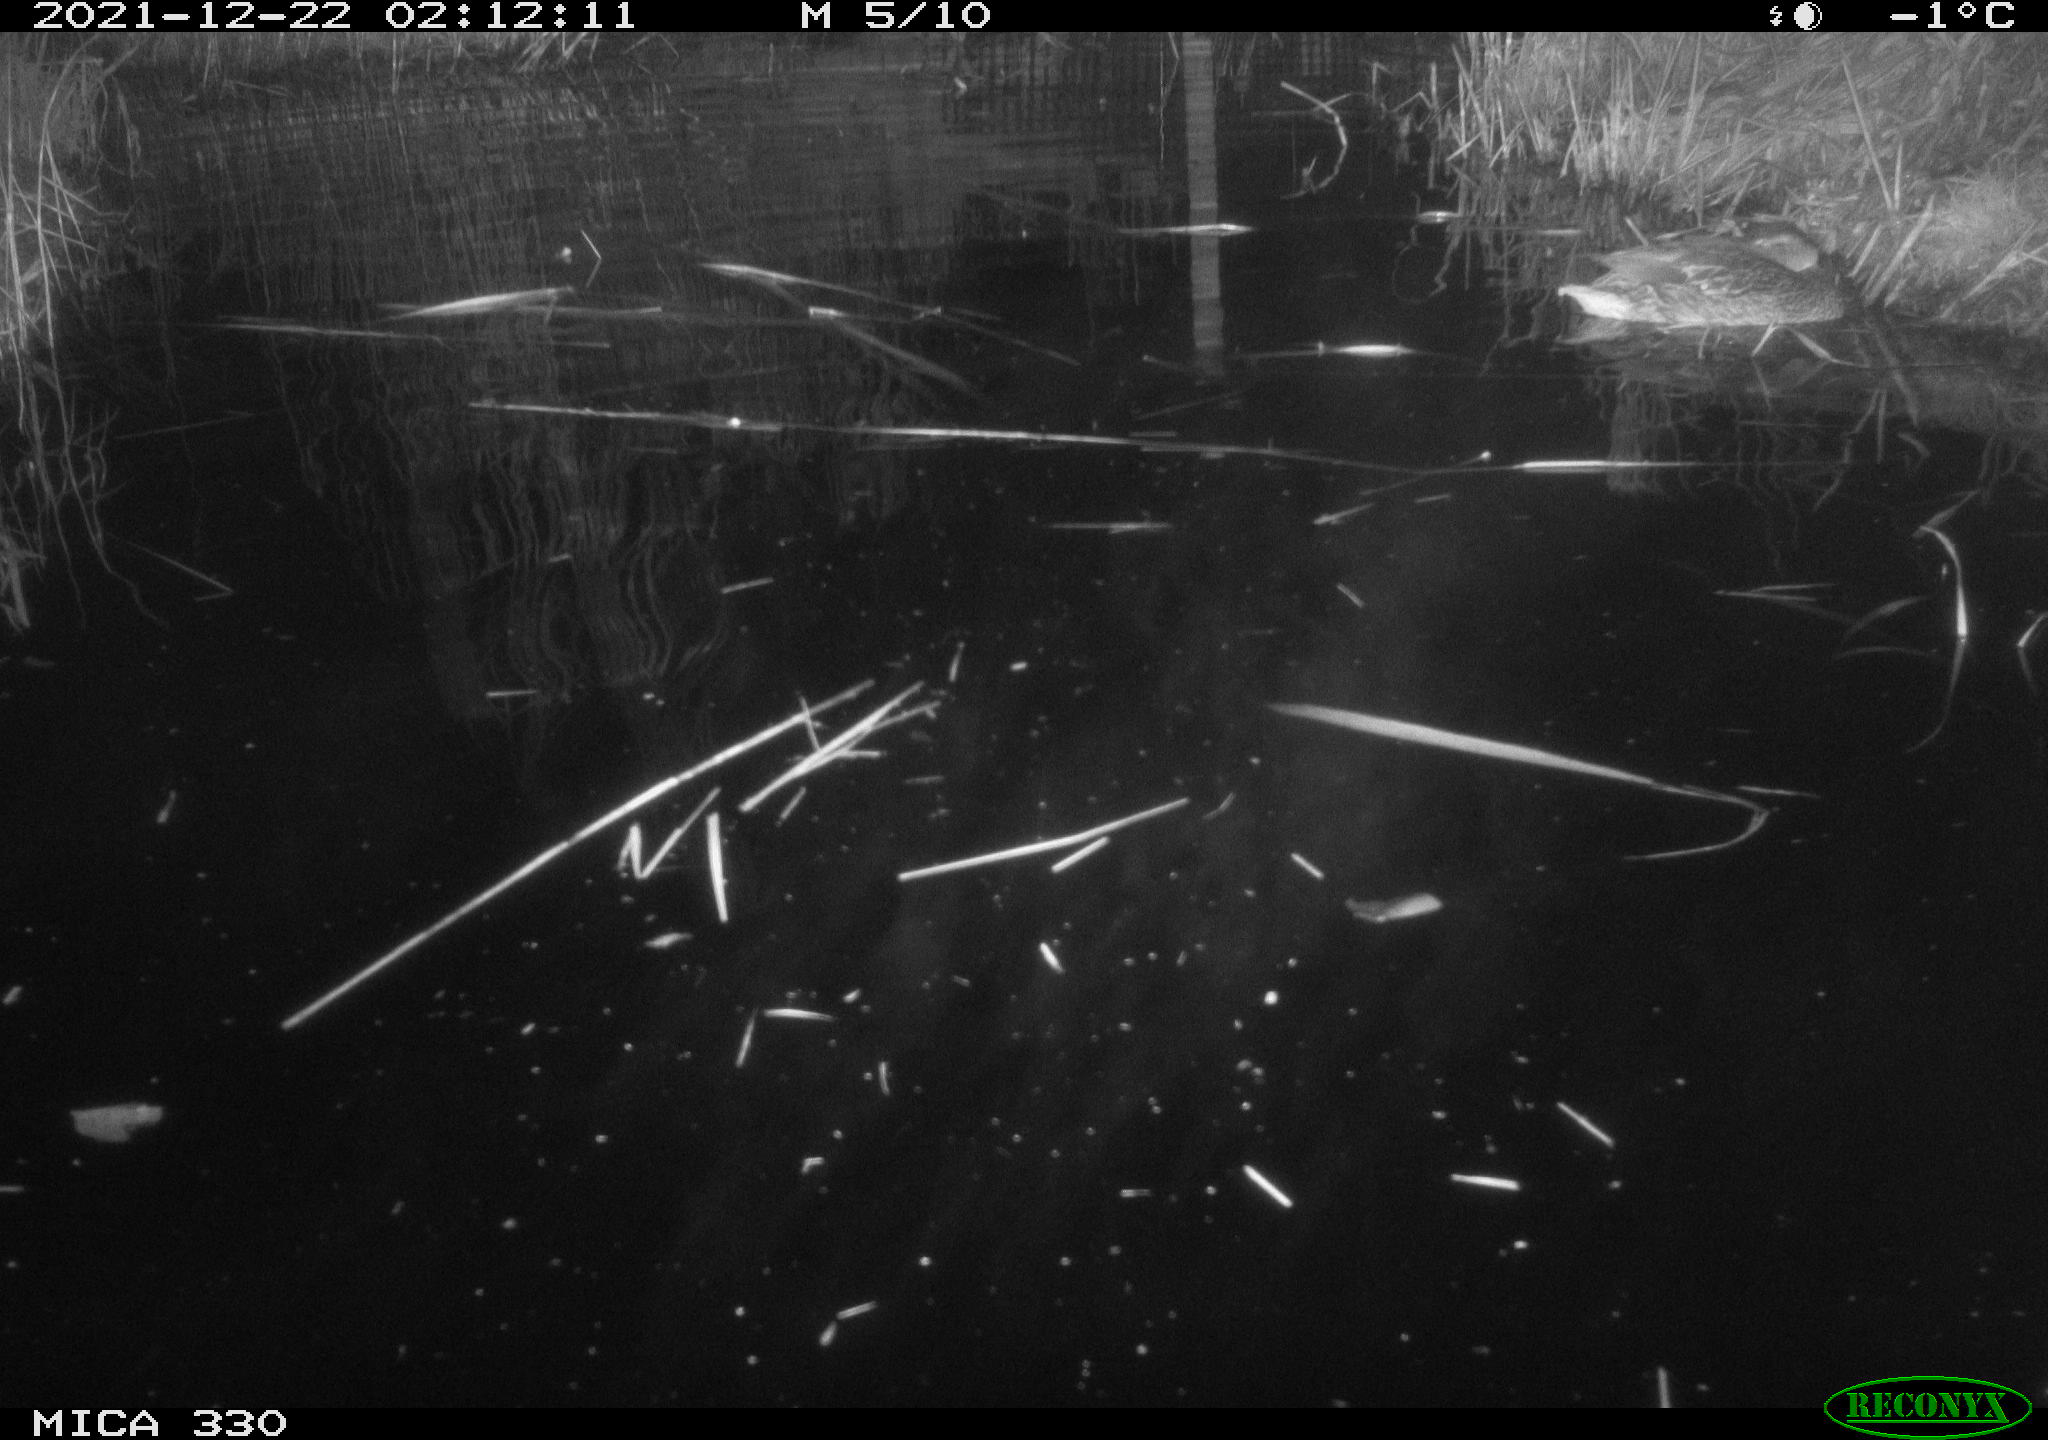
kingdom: Animalia
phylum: Chordata
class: Aves
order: Anseriformes
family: Anatidae
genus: Anas
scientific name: Anas platyrhynchos
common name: Mallard
